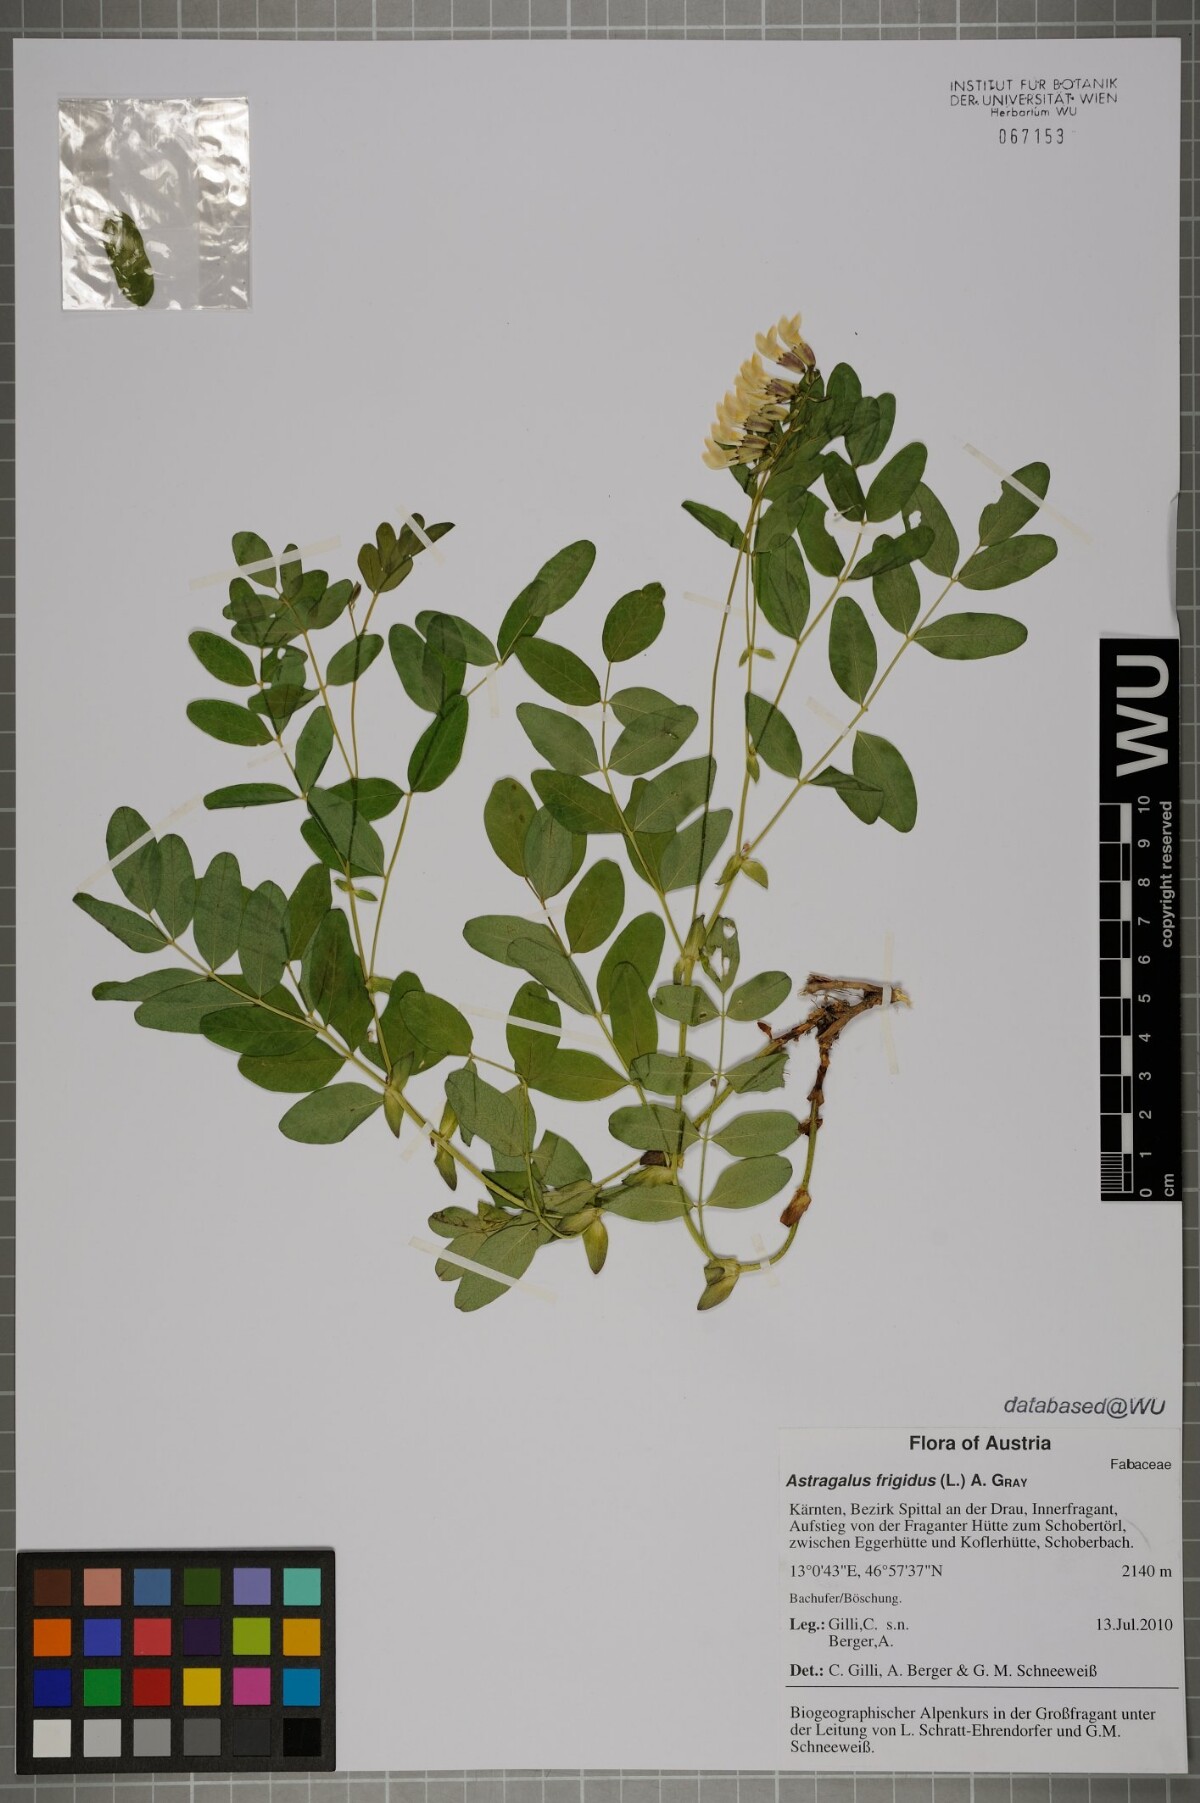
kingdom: Plantae
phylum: Tracheophyta
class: Magnoliopsida
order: Fabales
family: Fabaceae
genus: Astragalus
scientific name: Astragalus frigidus
